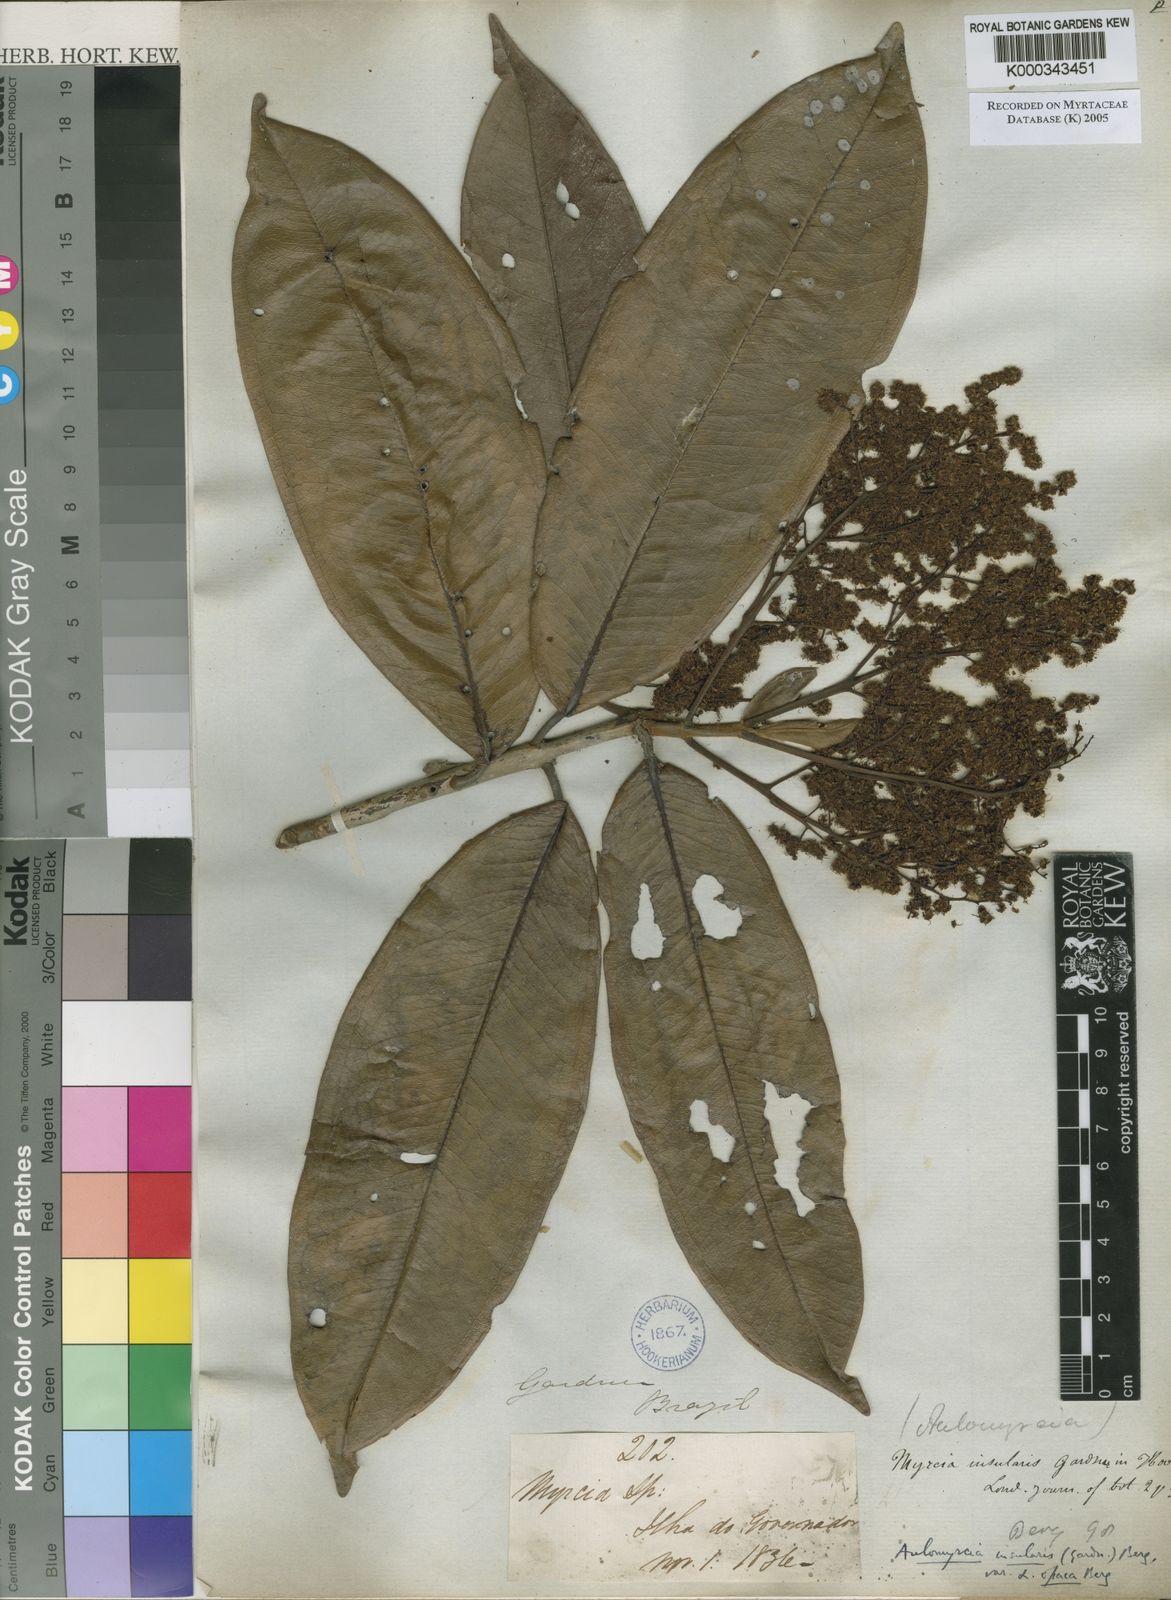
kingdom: Plantae
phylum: Tracheophyta
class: Magnoliopsida
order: Myrtales
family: Myrtaceae
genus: Myrcia
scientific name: Myrcia insularis
